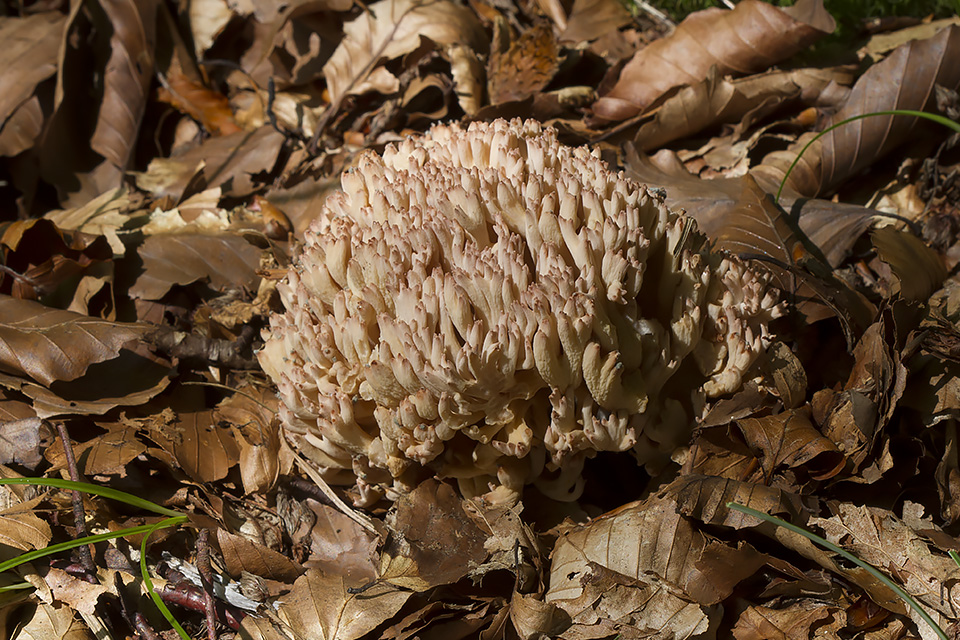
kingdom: Fungi
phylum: Basidiomycota
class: Agaricomycetes
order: Gomphales
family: Gomphaceae
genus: Ramaria
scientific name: Ramaria botrytis
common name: drue-koralsvamp
